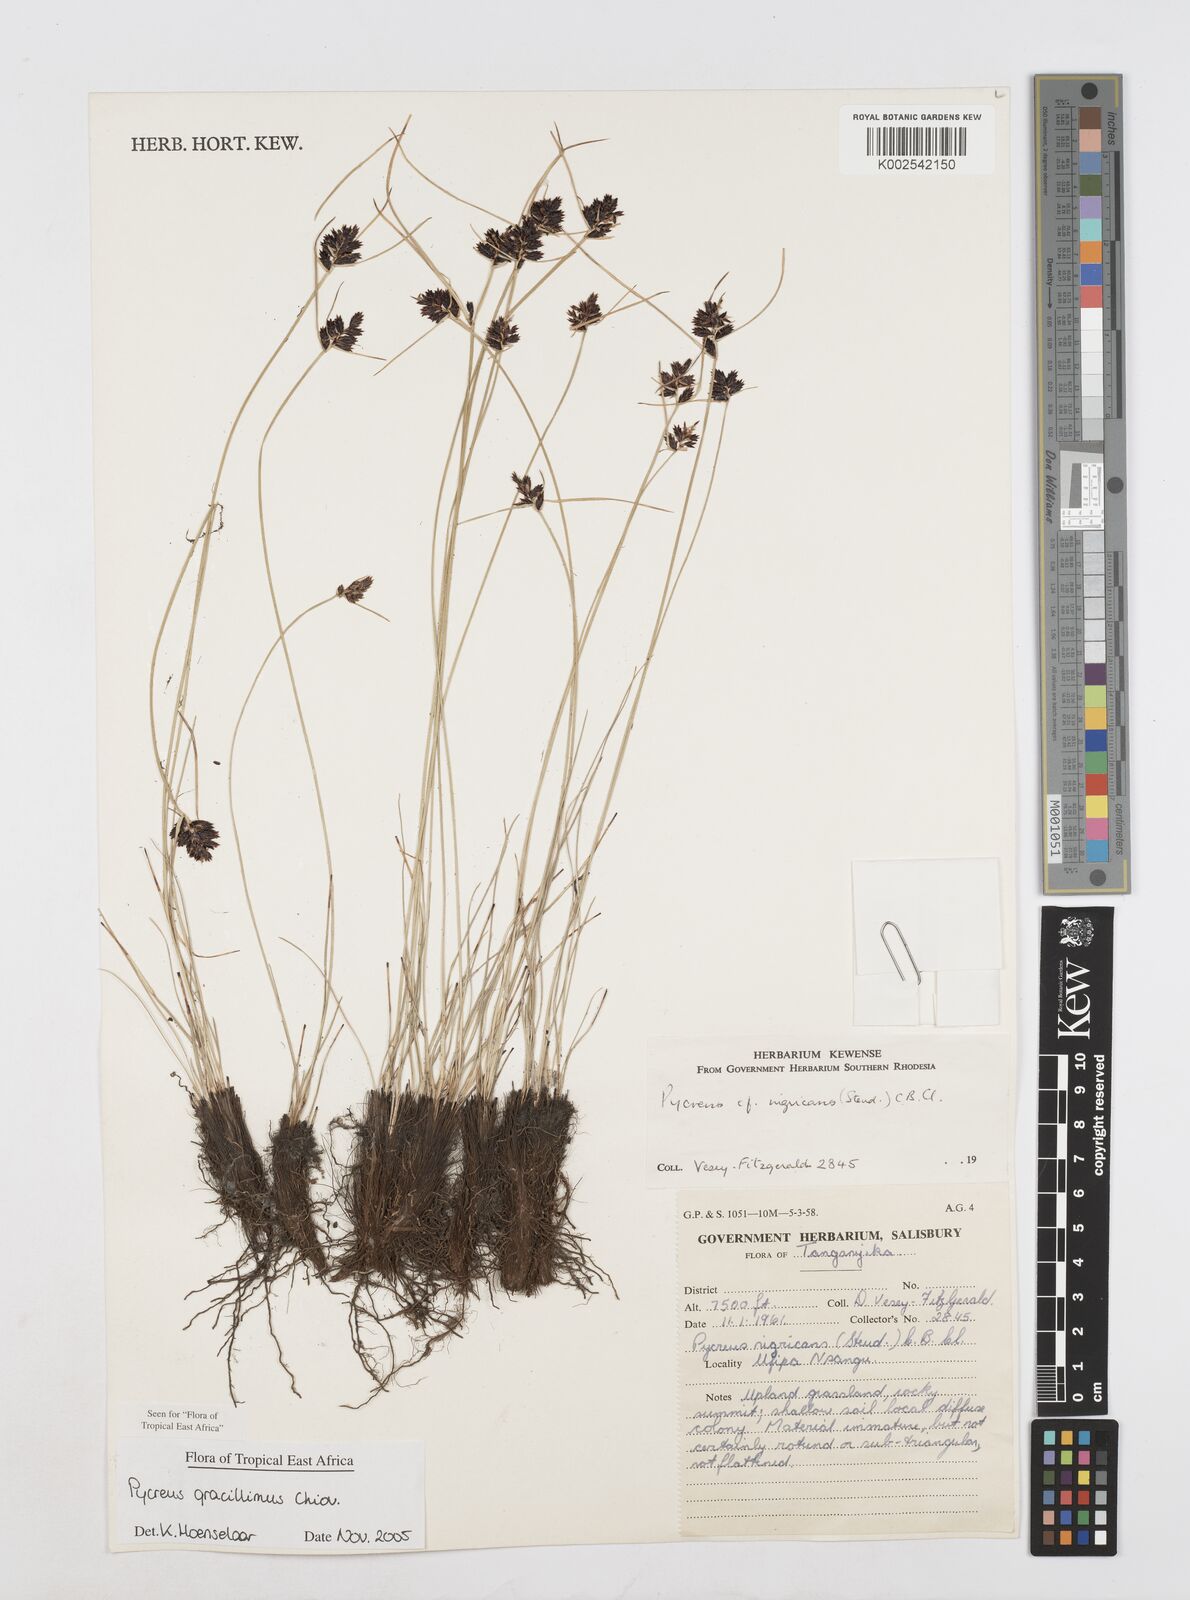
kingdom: Plantae
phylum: Tracheophyta
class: Liliopsida
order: Poales
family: Cyperaceae
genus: Cyperus
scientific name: Cyperus gracillimus
